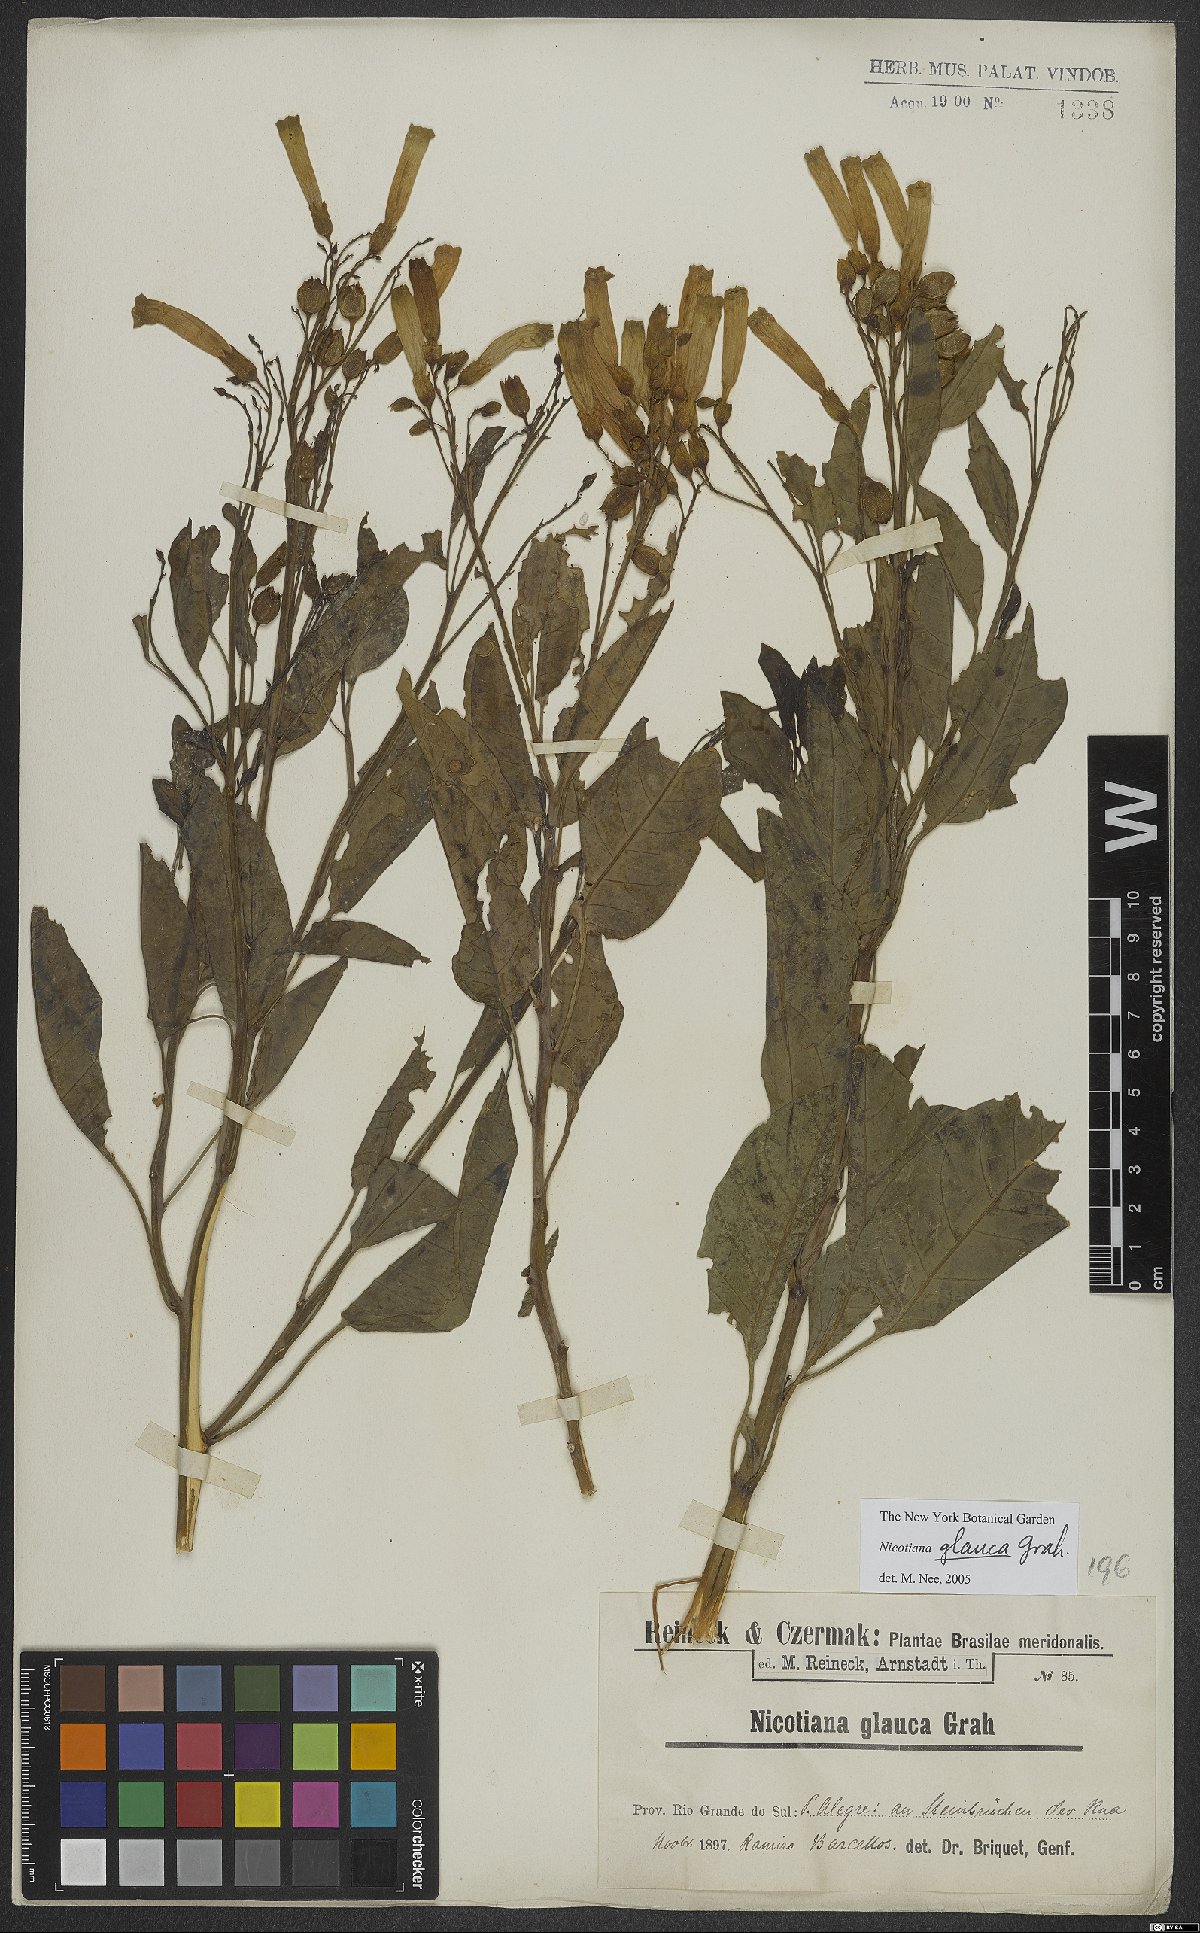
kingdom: Plantae
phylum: Tracheophyta
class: Magnoliopsida
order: Solanales
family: Solanaceae
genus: Nicotiana
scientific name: Nicotiana glauca
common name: Tree tobacco
